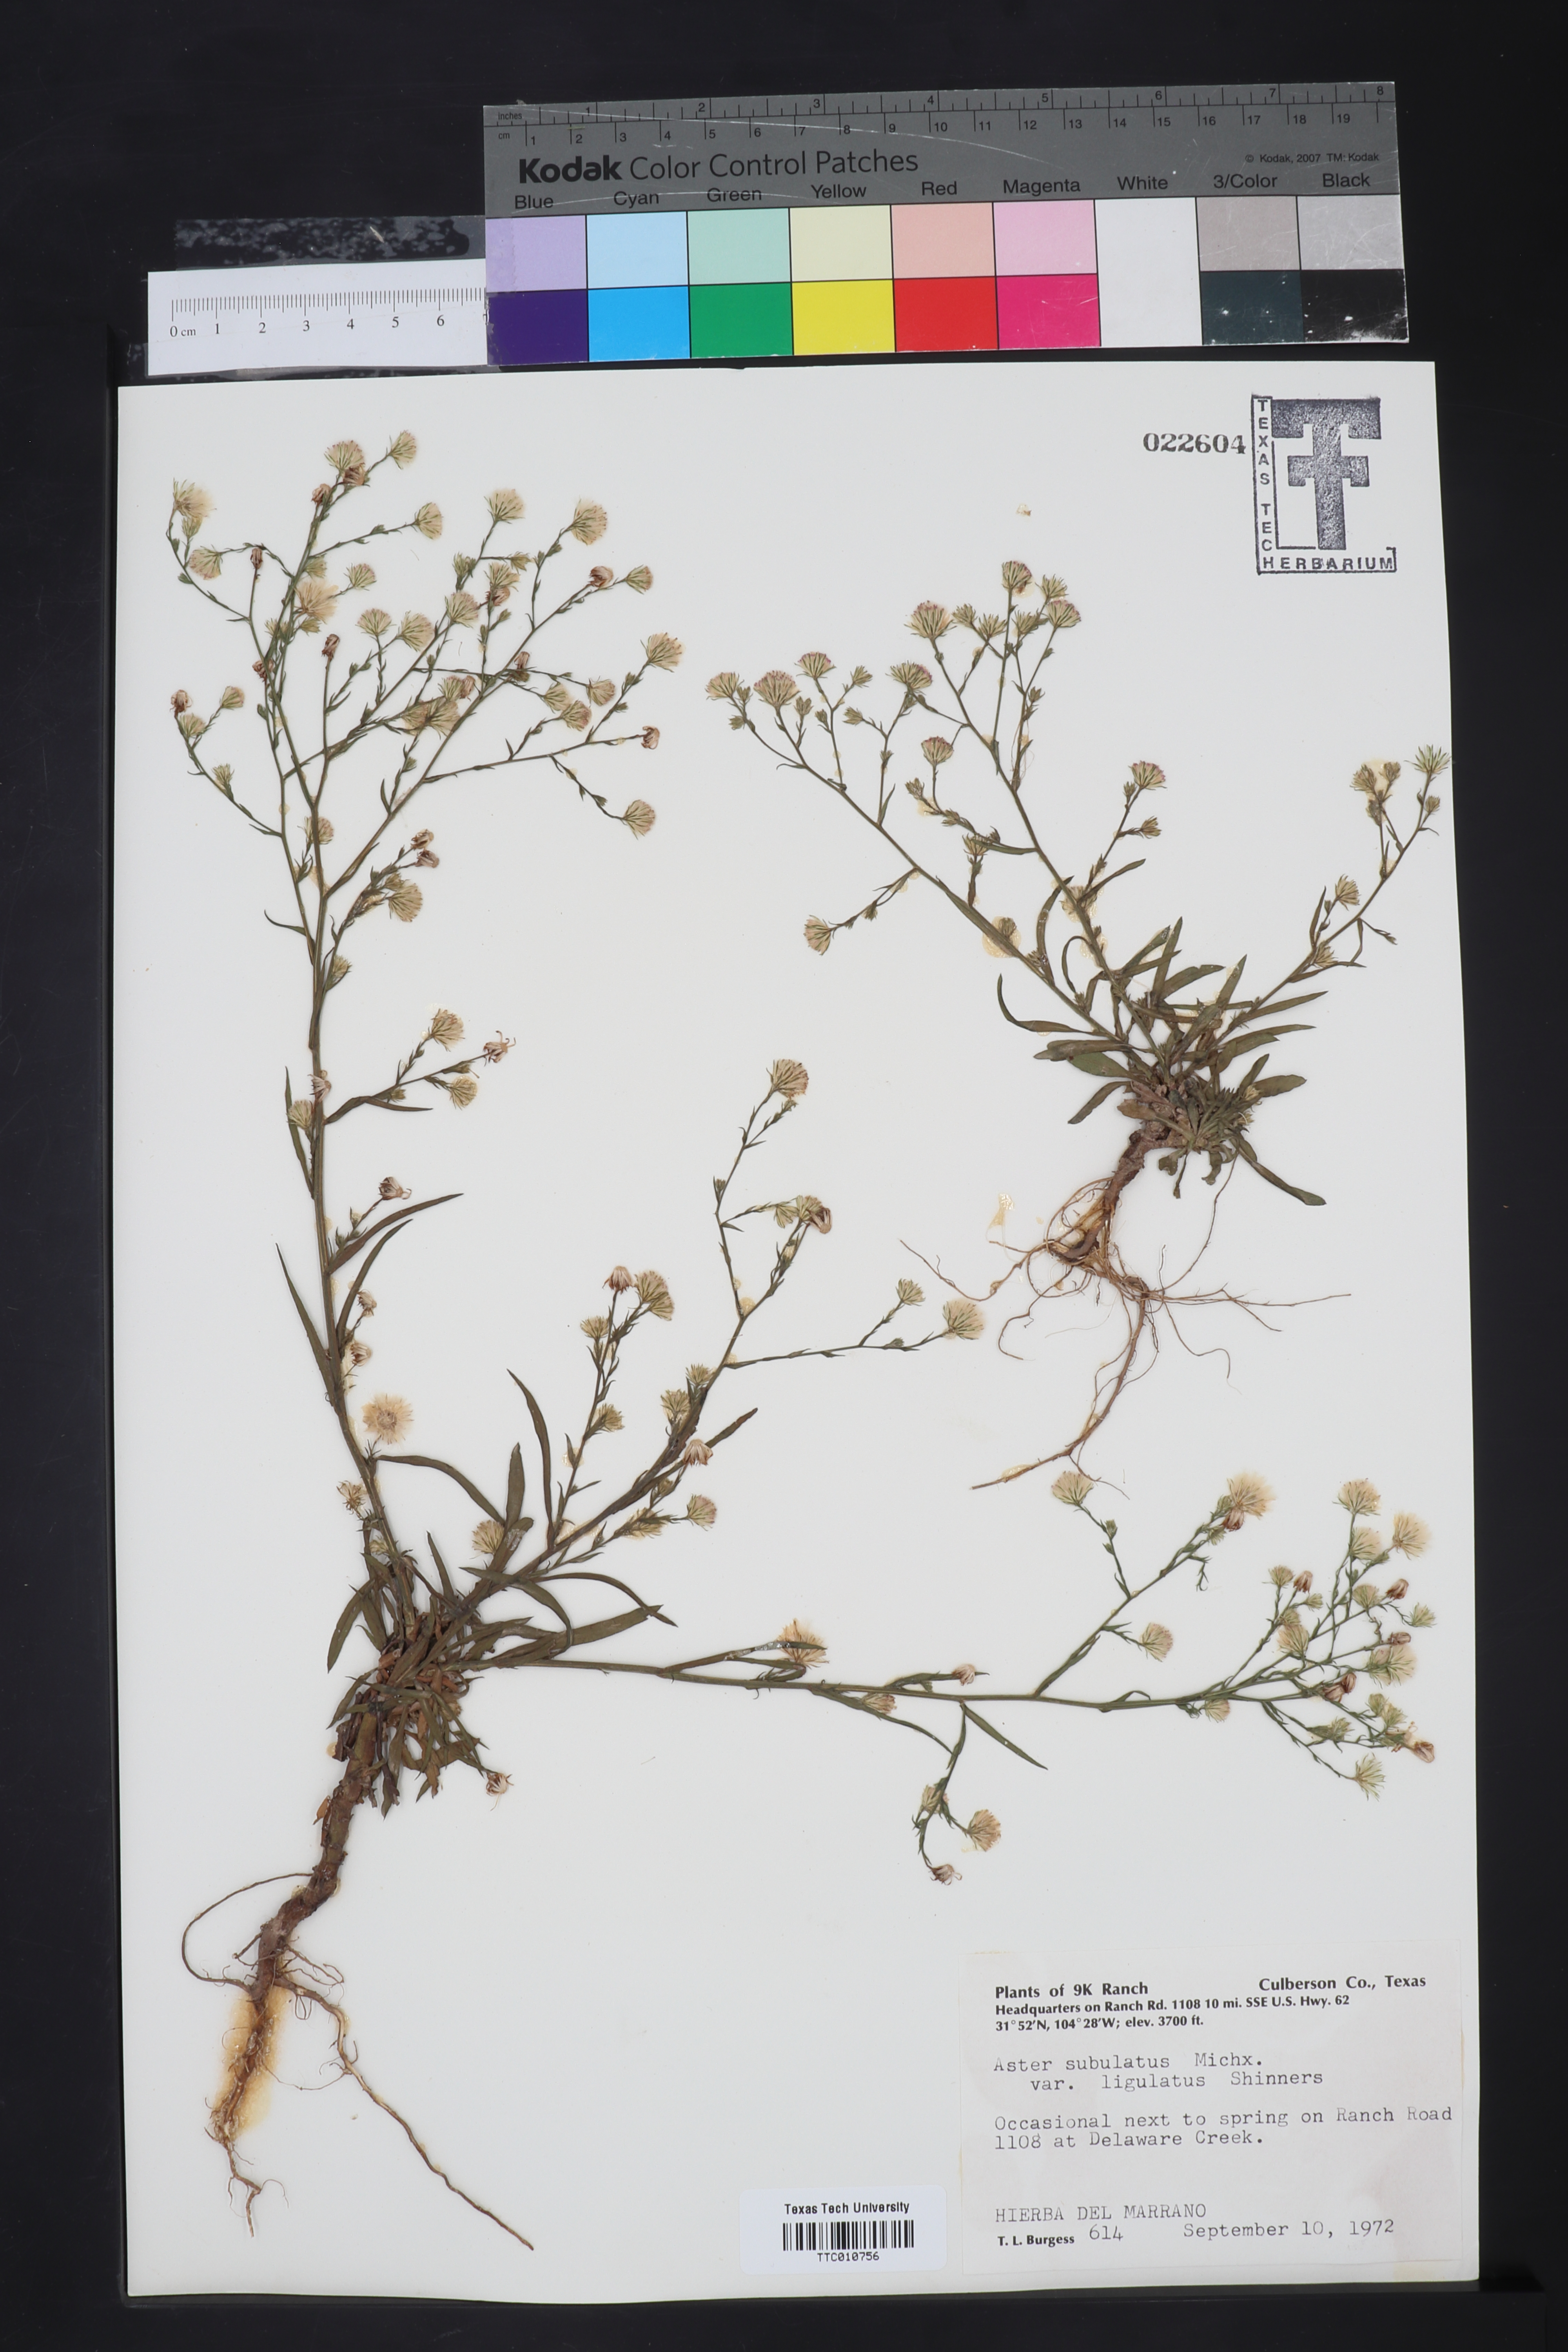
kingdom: Plantae
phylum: Tracheophyta
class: Magnoliopsida
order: Asterales
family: Asteraceae
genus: Symphyotrichum
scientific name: Symphyotrichum divaricatum
